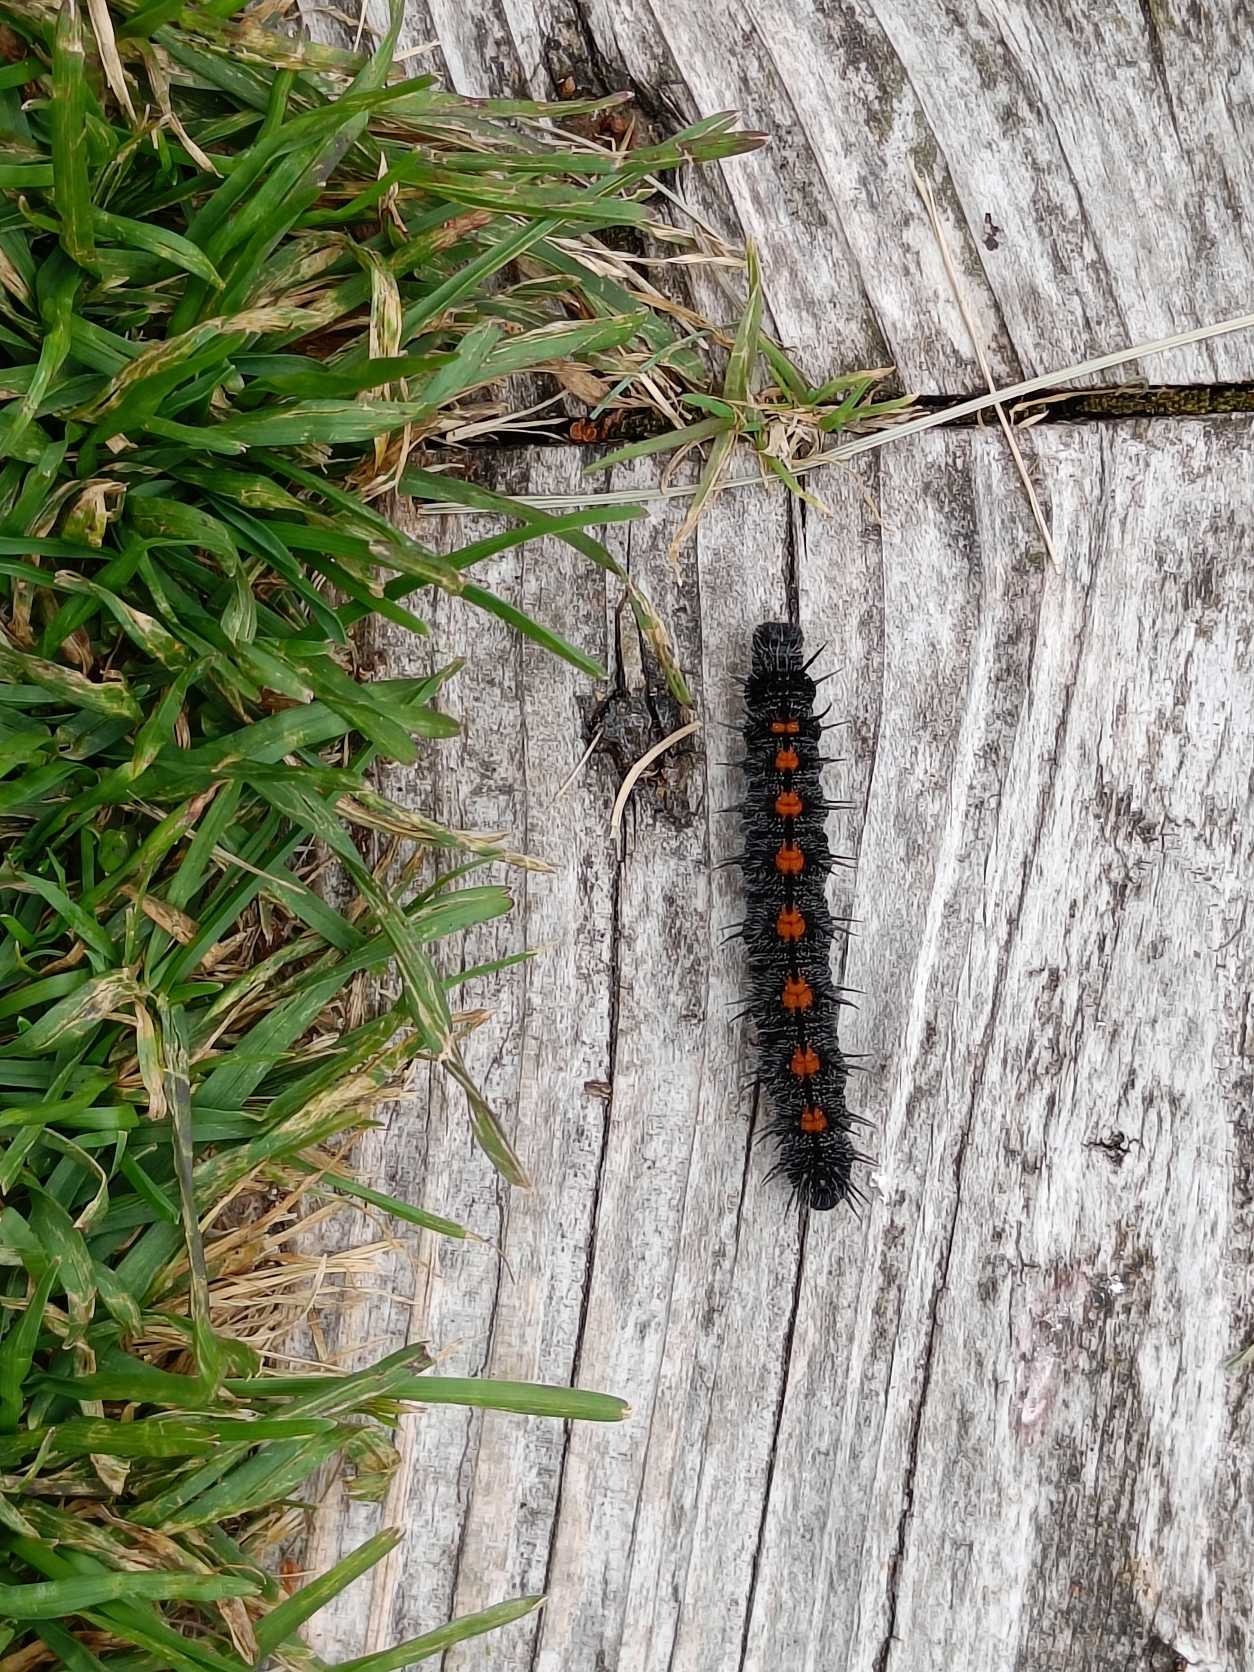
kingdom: Animalia
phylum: Arthropoda
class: Insecta
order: Lepidoptera
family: Nymphalidae
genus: Nymphalis
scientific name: Nymphalis antiopa
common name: Sørgekåbe
